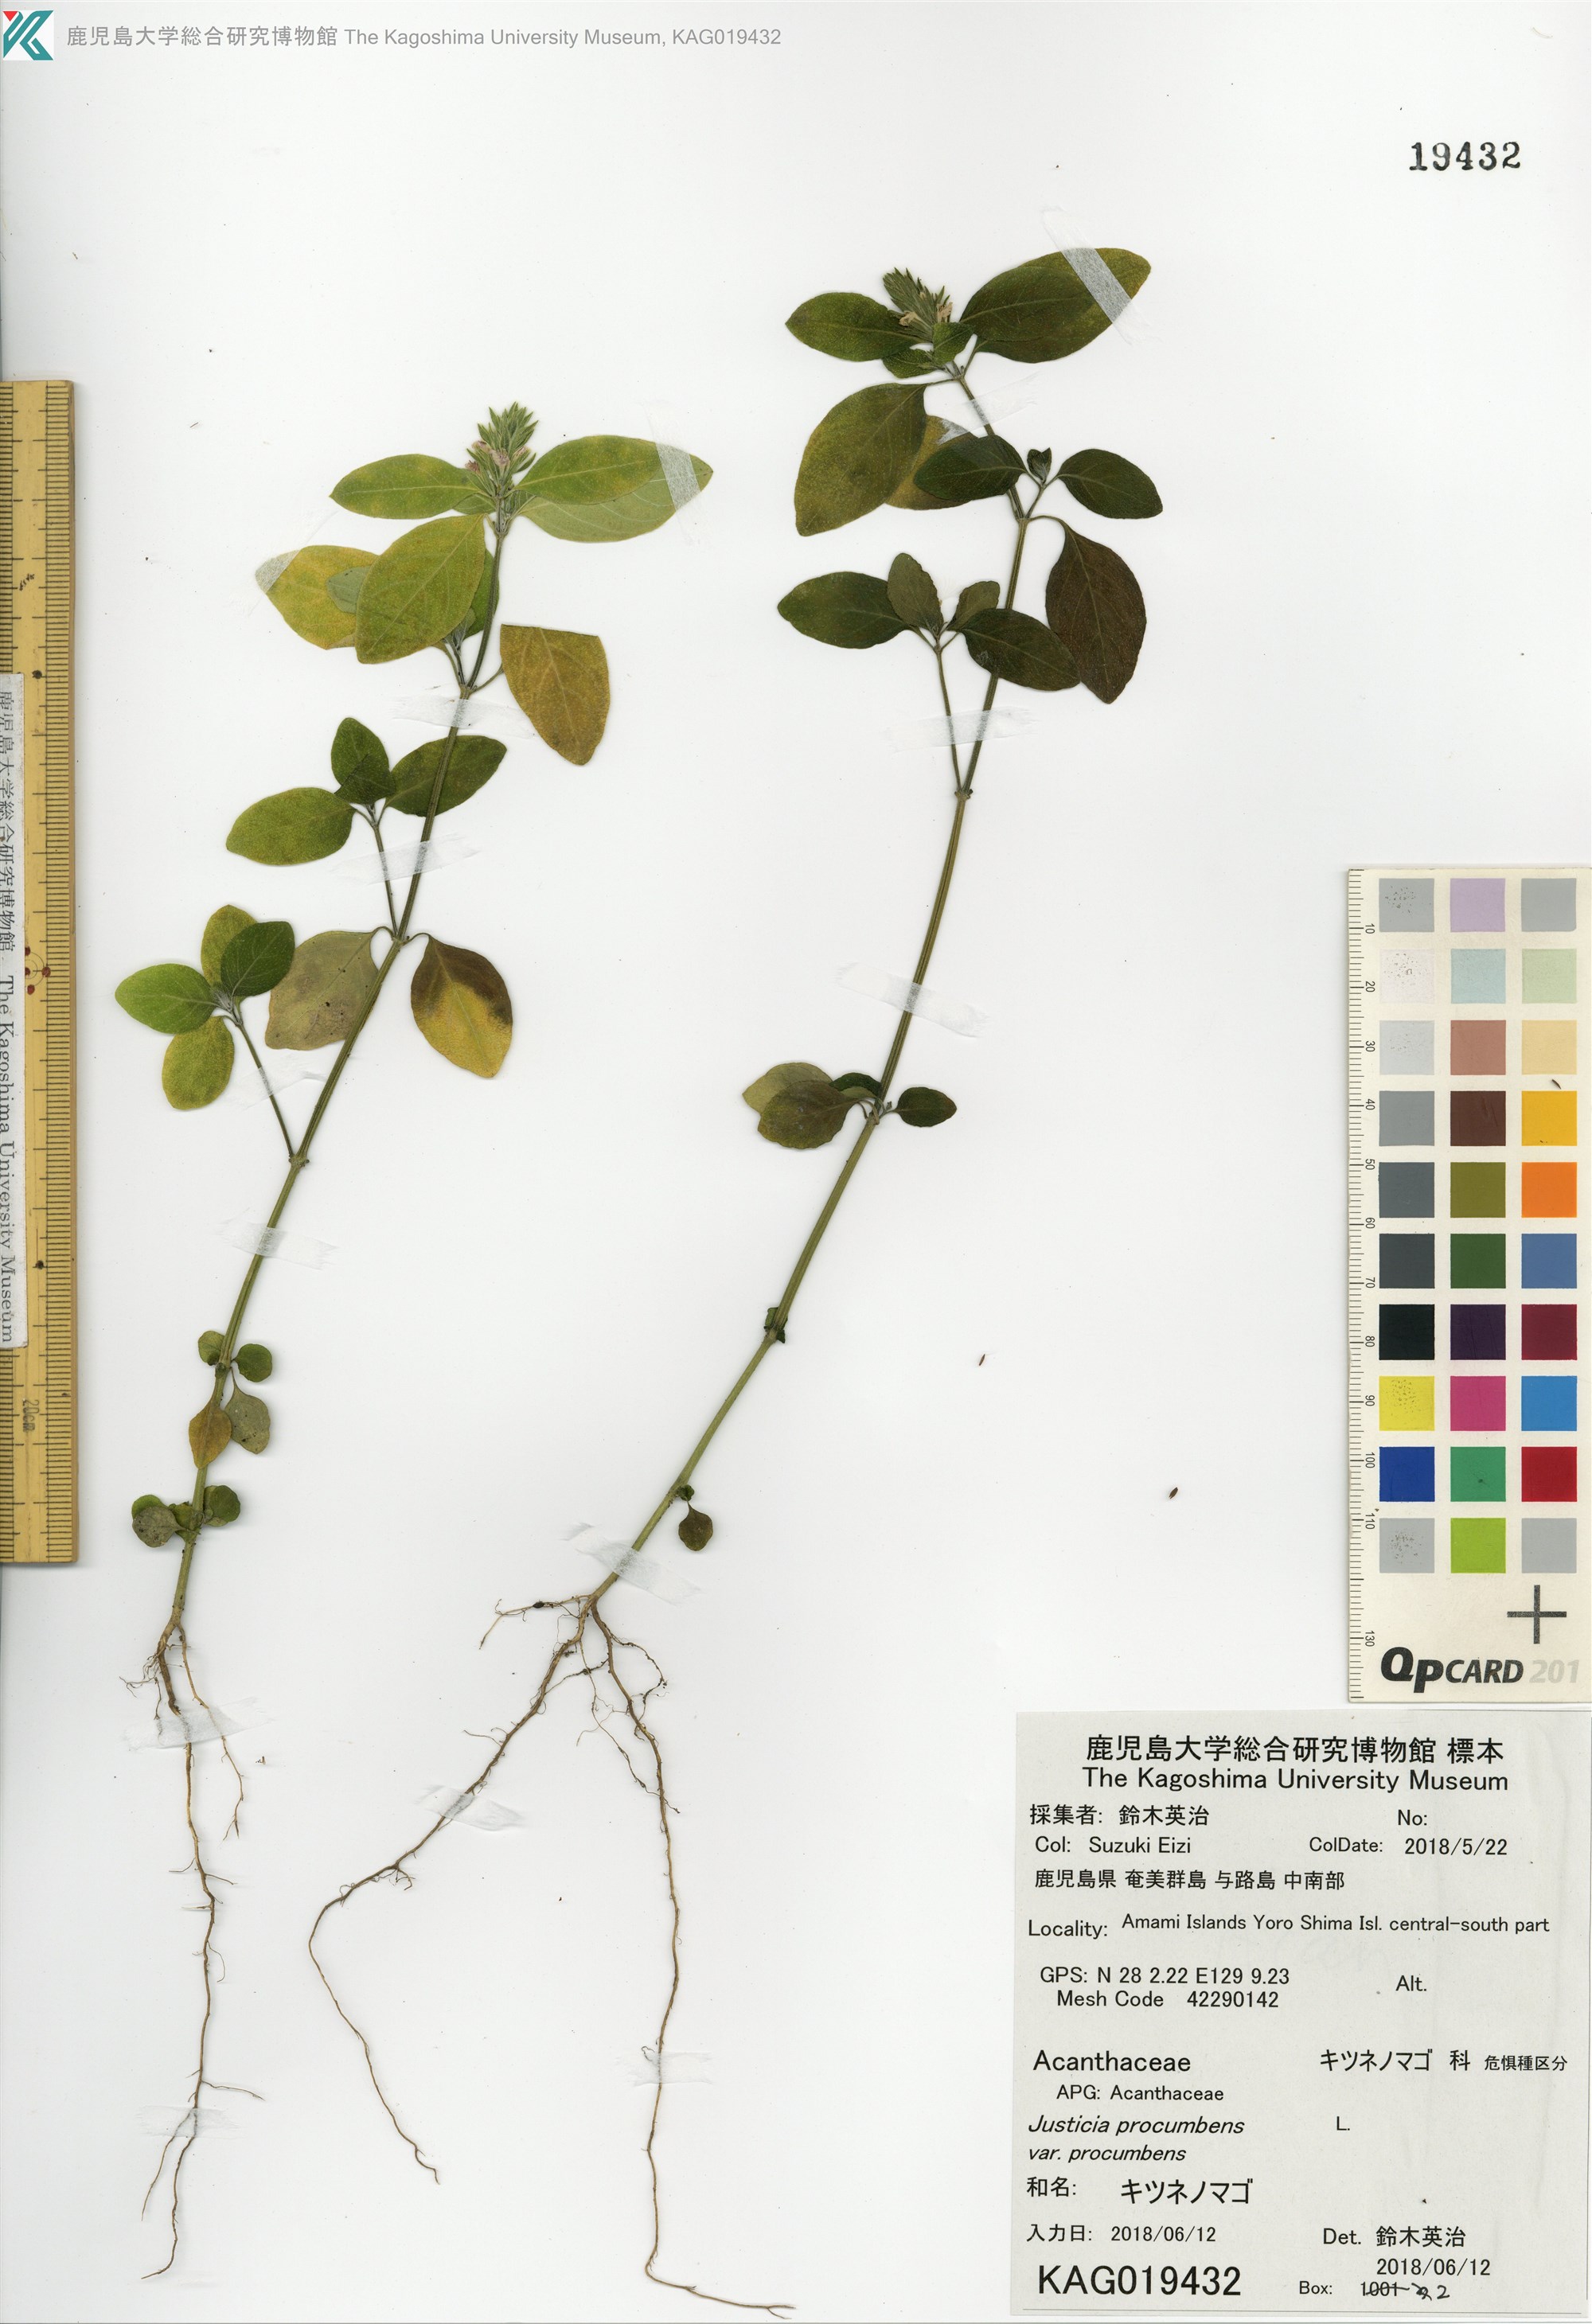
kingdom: Plantae
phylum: Tracheophyta
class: Magnoliopsida
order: Lamiales
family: Acanthaceae
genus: Rostellularia
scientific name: Rostellularia procumbens
